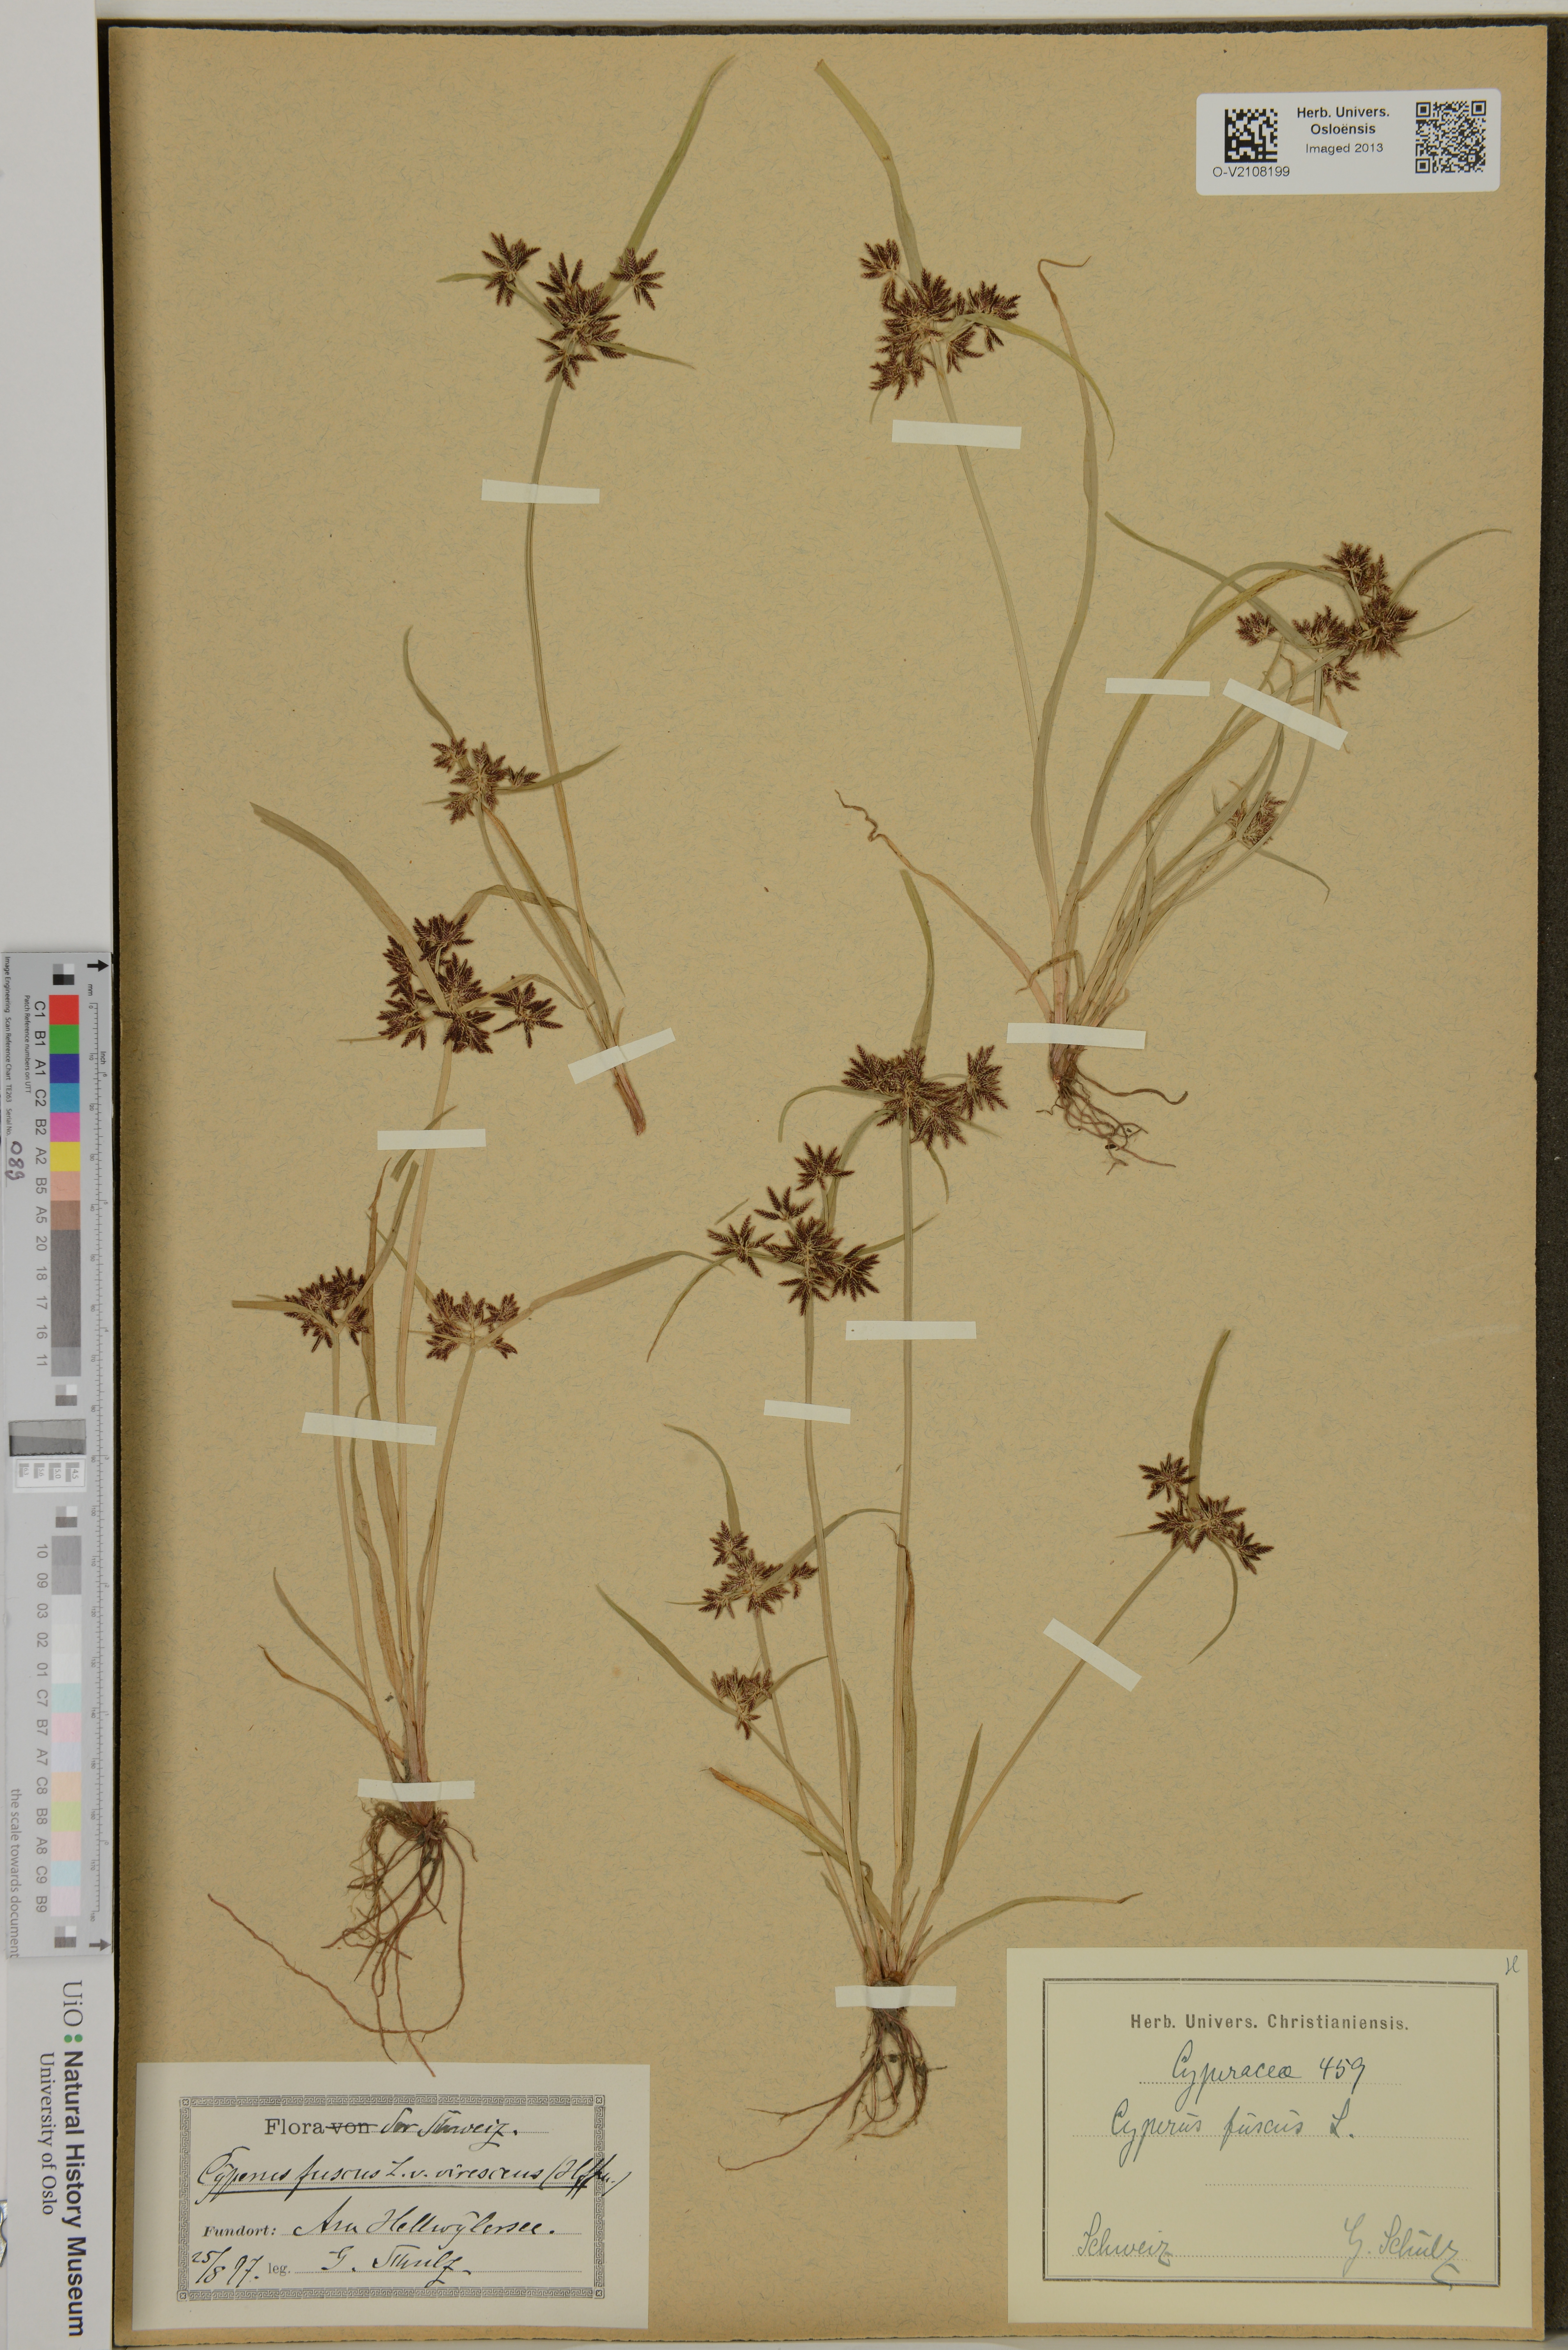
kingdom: Plantae
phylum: Tracheophyta
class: Liliopsida
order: Poales
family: Cyperaceae
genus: Cyperus
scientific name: Cyperus fuscus
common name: Brown galingale
